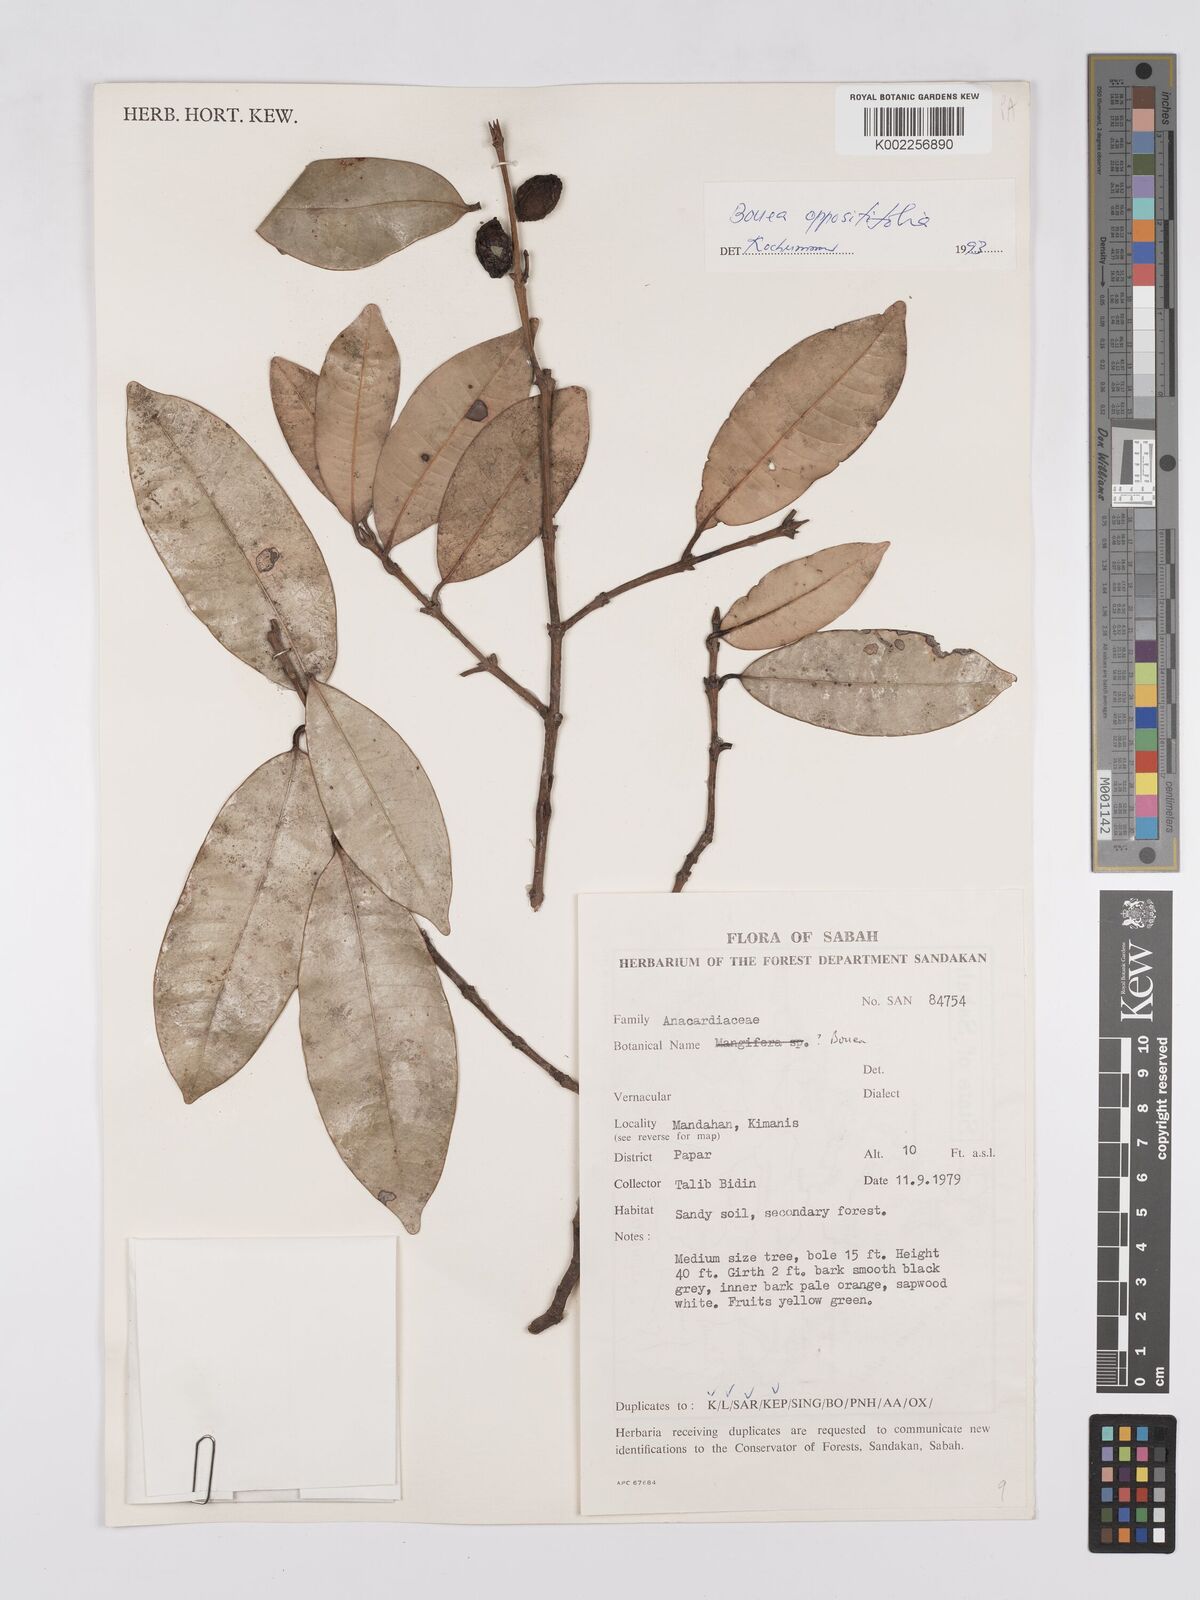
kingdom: Plantae
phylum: Tracheophyta
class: Magnoliopsida
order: Sapindales
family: Anacardiaceae
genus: Bouea
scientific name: Bouea oppositifolia
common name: Narrow-leaved kundang
